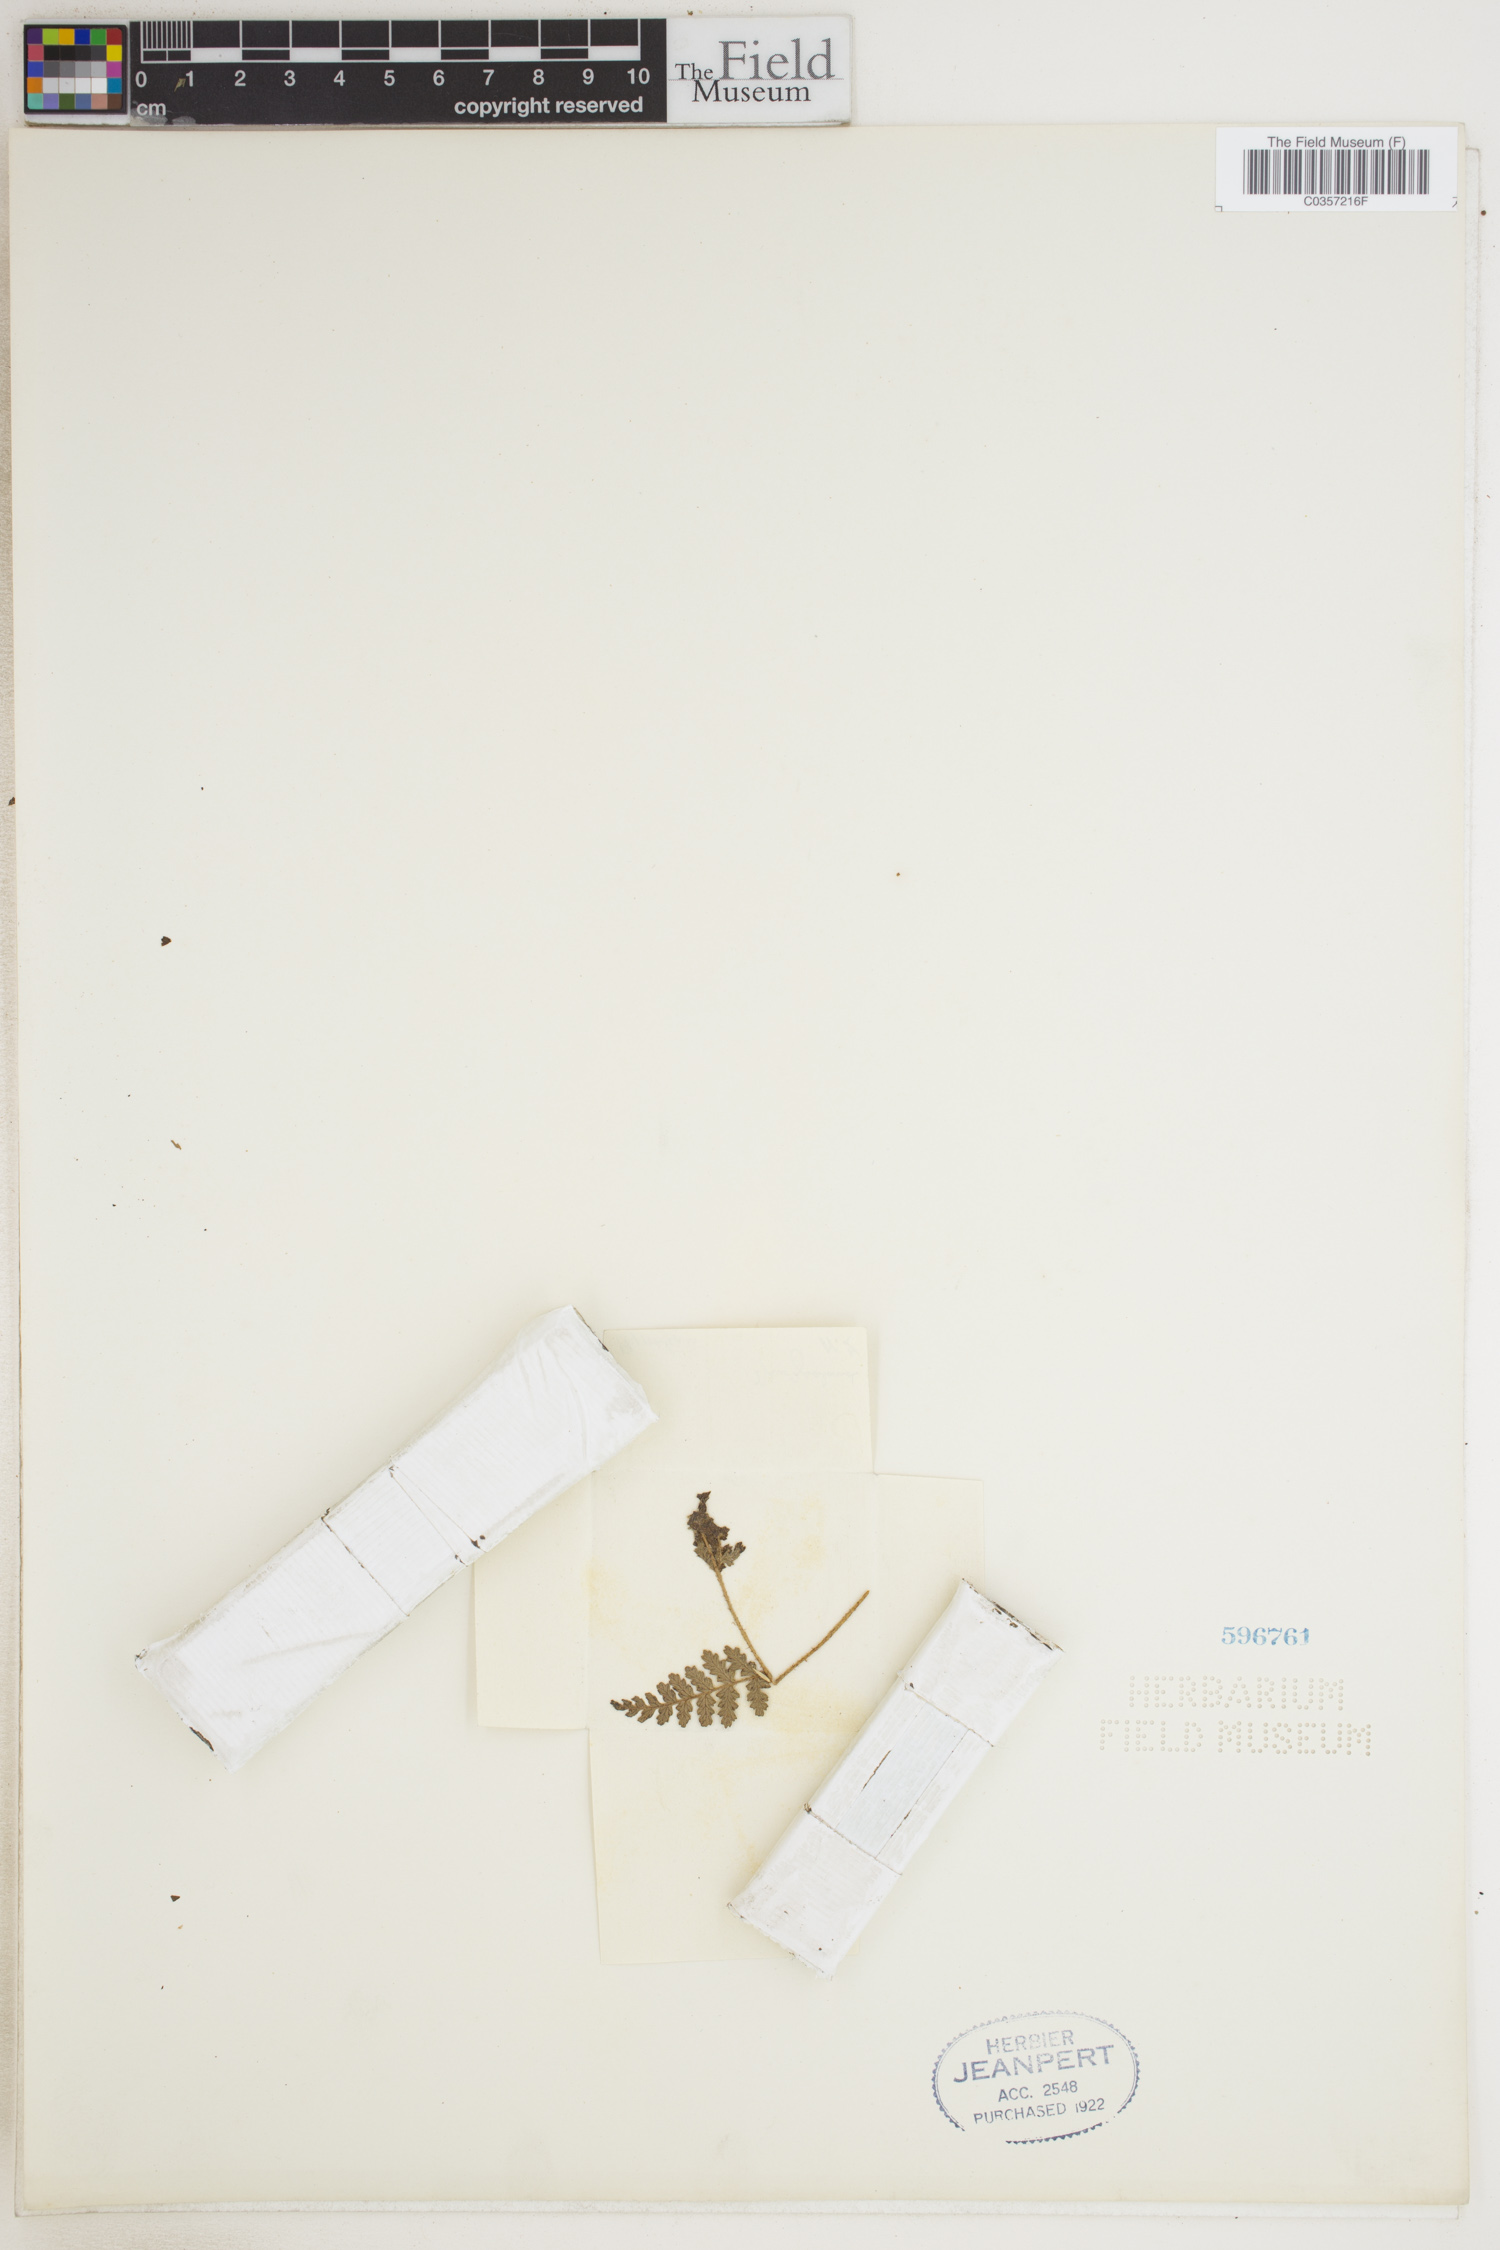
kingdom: Plantae
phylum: Tracheophyta
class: Polypodiopsida
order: Polypodiales
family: Dennstaedtiaceae
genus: Hypolepis
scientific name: Hypolepis
